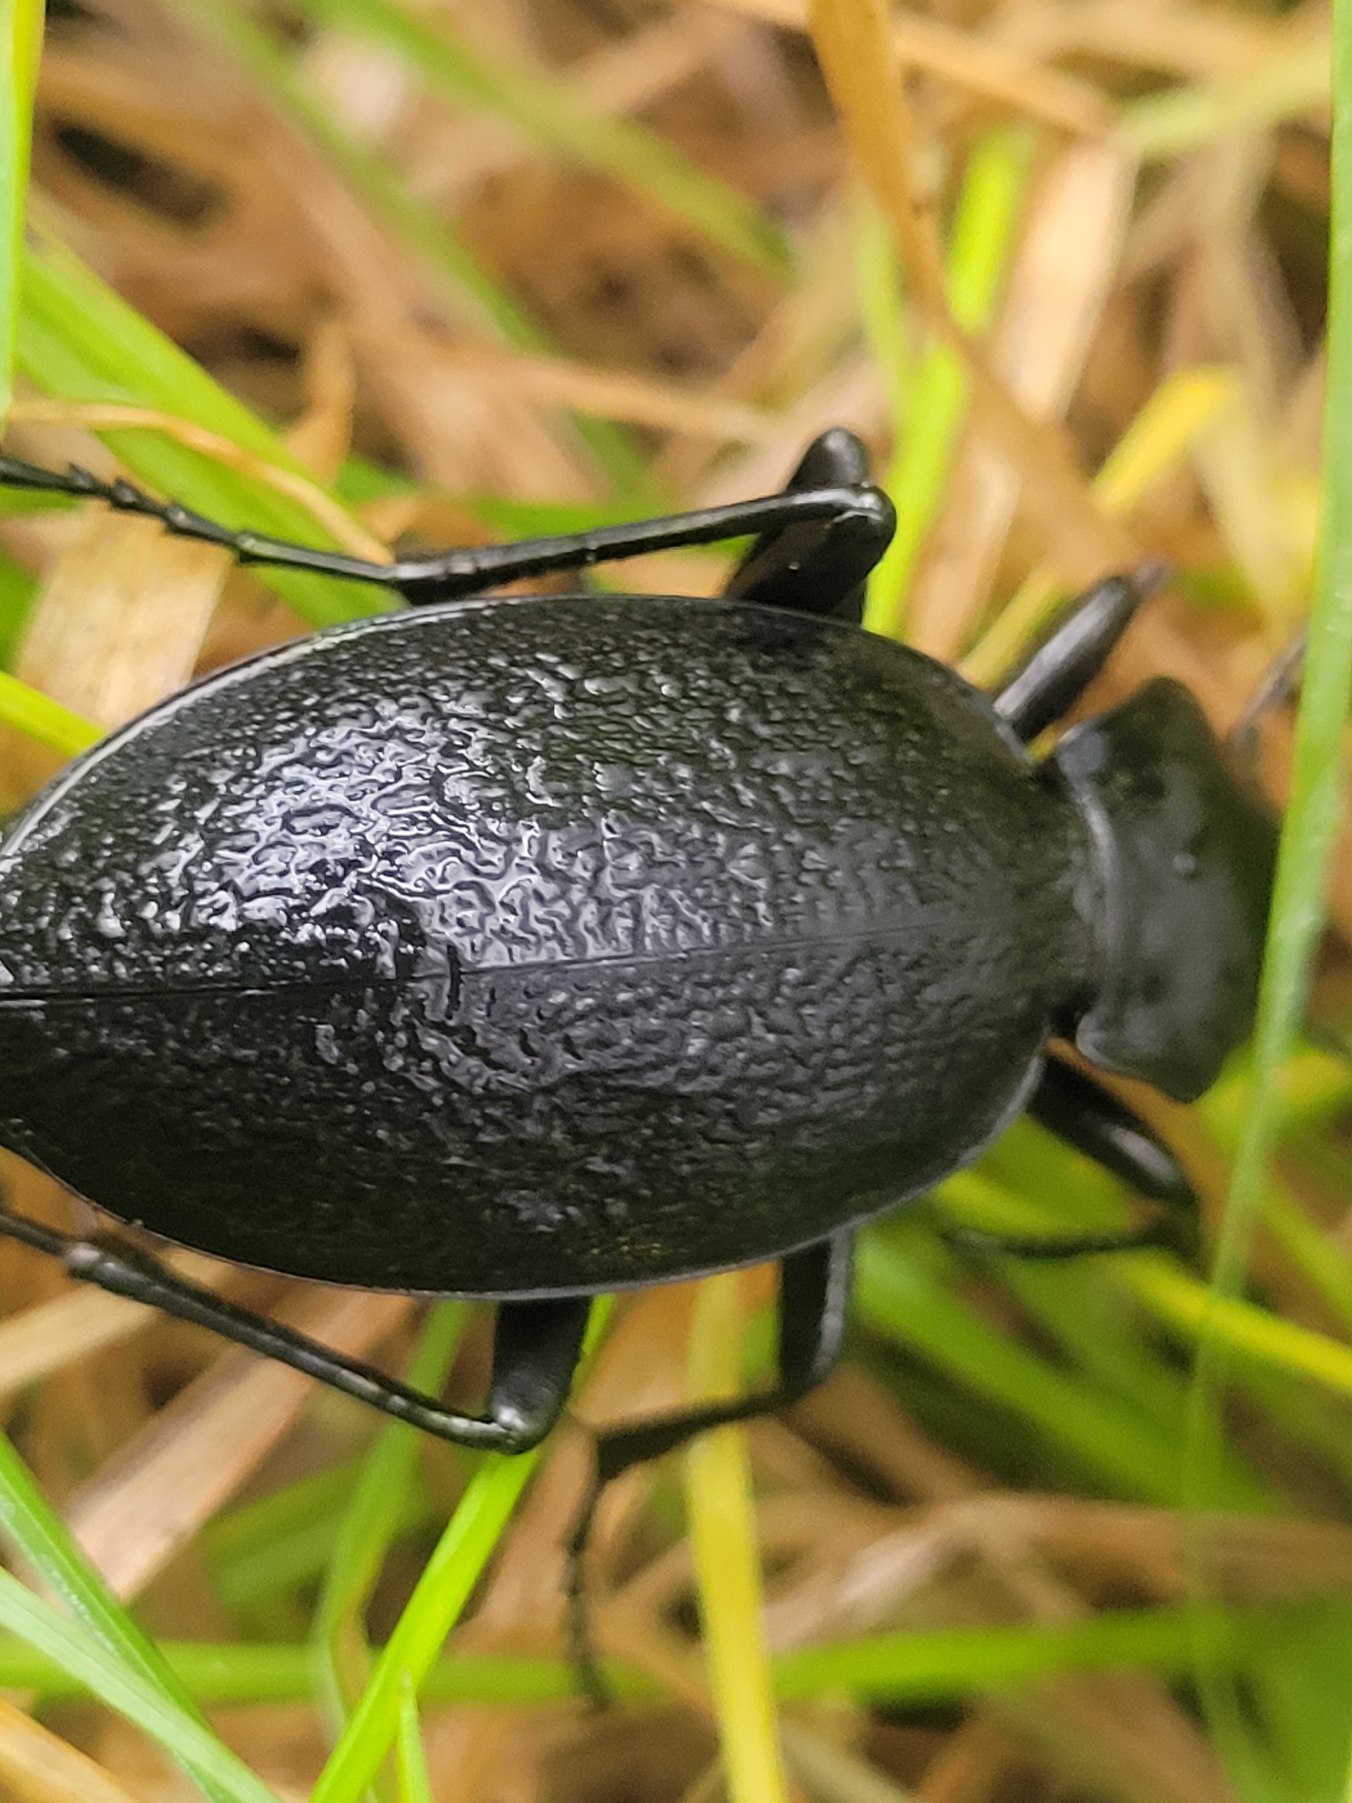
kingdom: Animalia
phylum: Arthropoda
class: Insecta
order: Coleoptera
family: Carabidae
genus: Carabus
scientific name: Carabus coriaceus
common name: Læderløber
